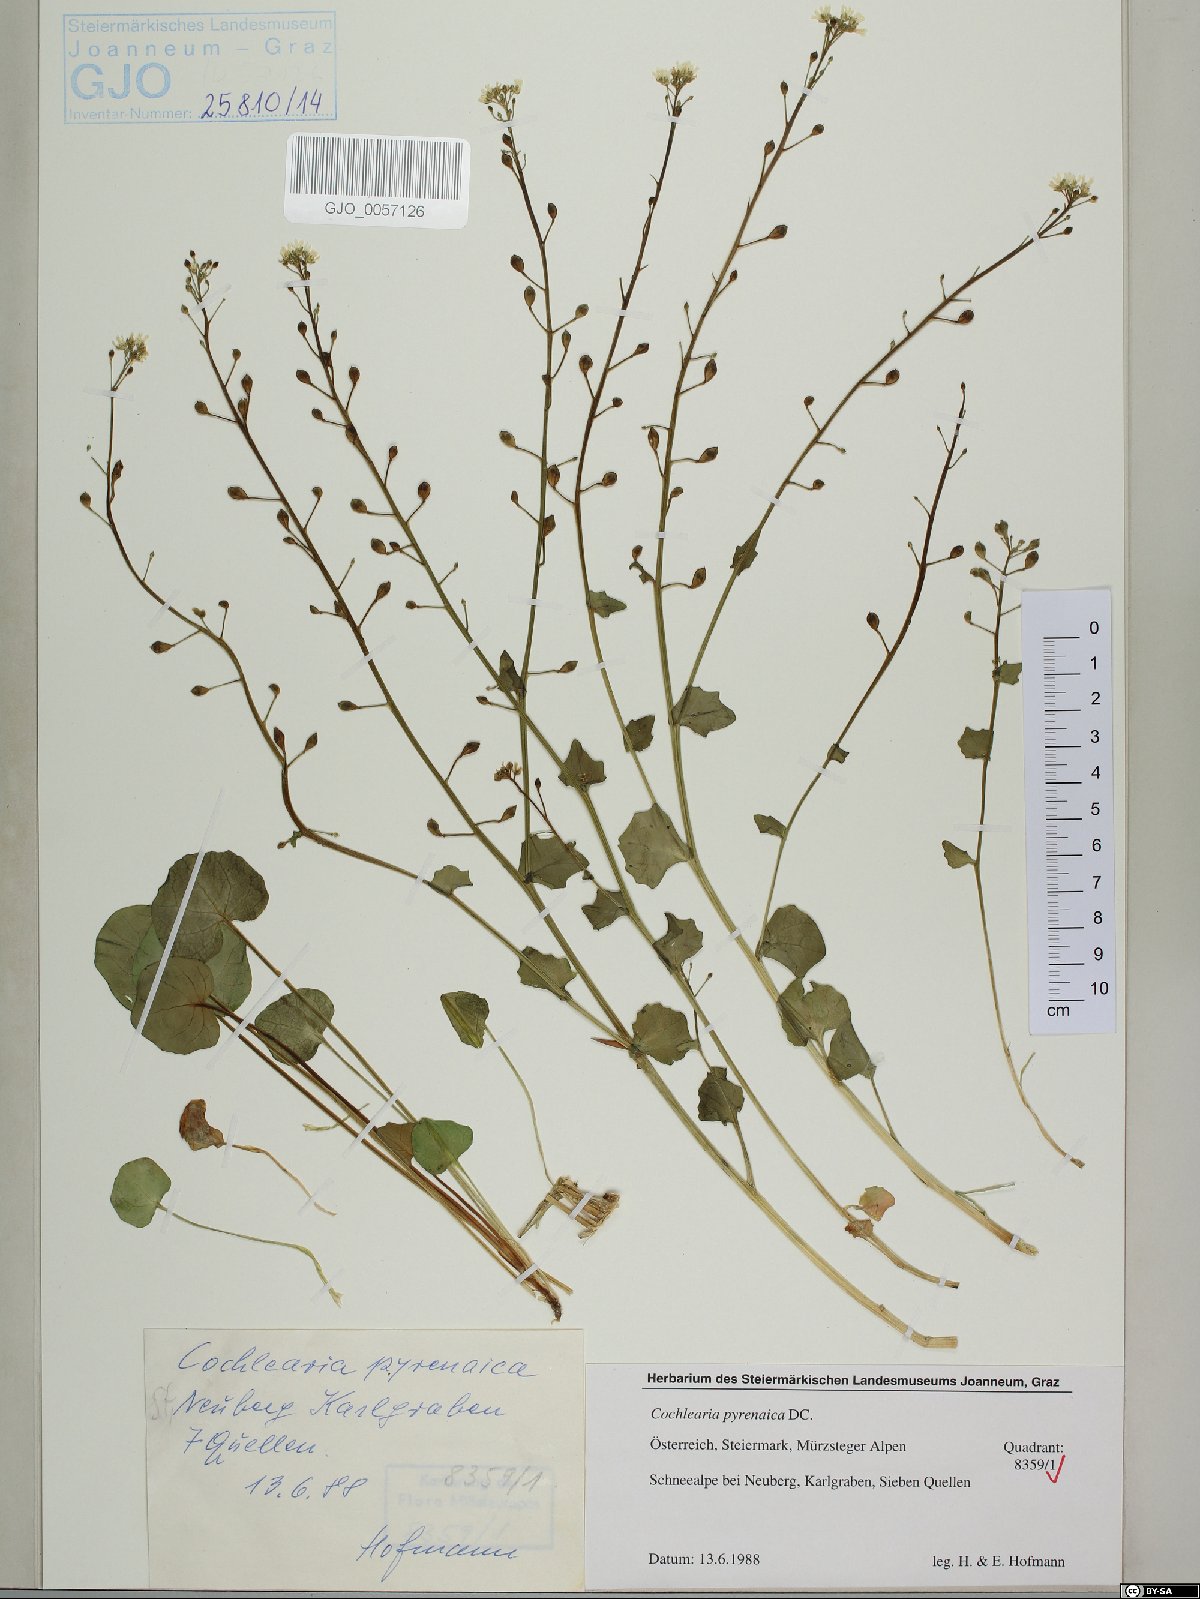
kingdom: Plantae
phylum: Tracheophyta
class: Magnoliopsida
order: Brassicales
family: Brassicaceae
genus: Cochlearia
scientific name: Cochlearia pyrenaica
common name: Upland scurvy-grass
